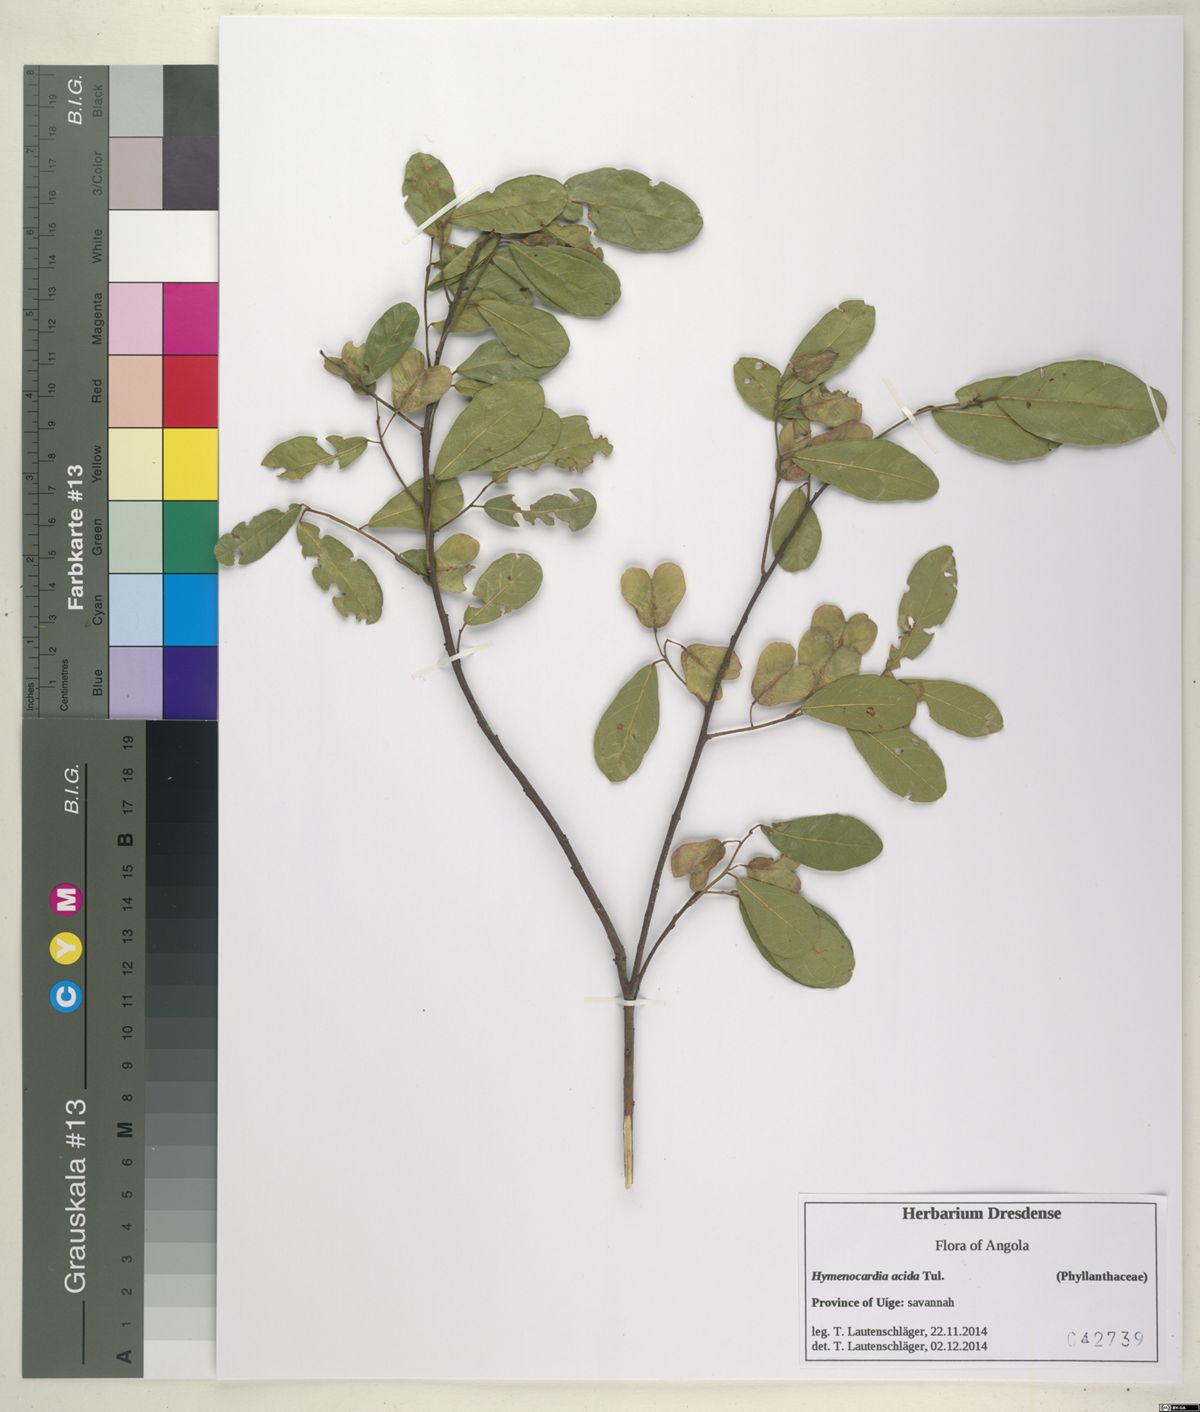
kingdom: Plantae
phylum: Tracheophyta
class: Magnoliopsida
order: Malpighiales
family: Phyllanthaceae
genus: Hymenocardia
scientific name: Hymenocardia acida
